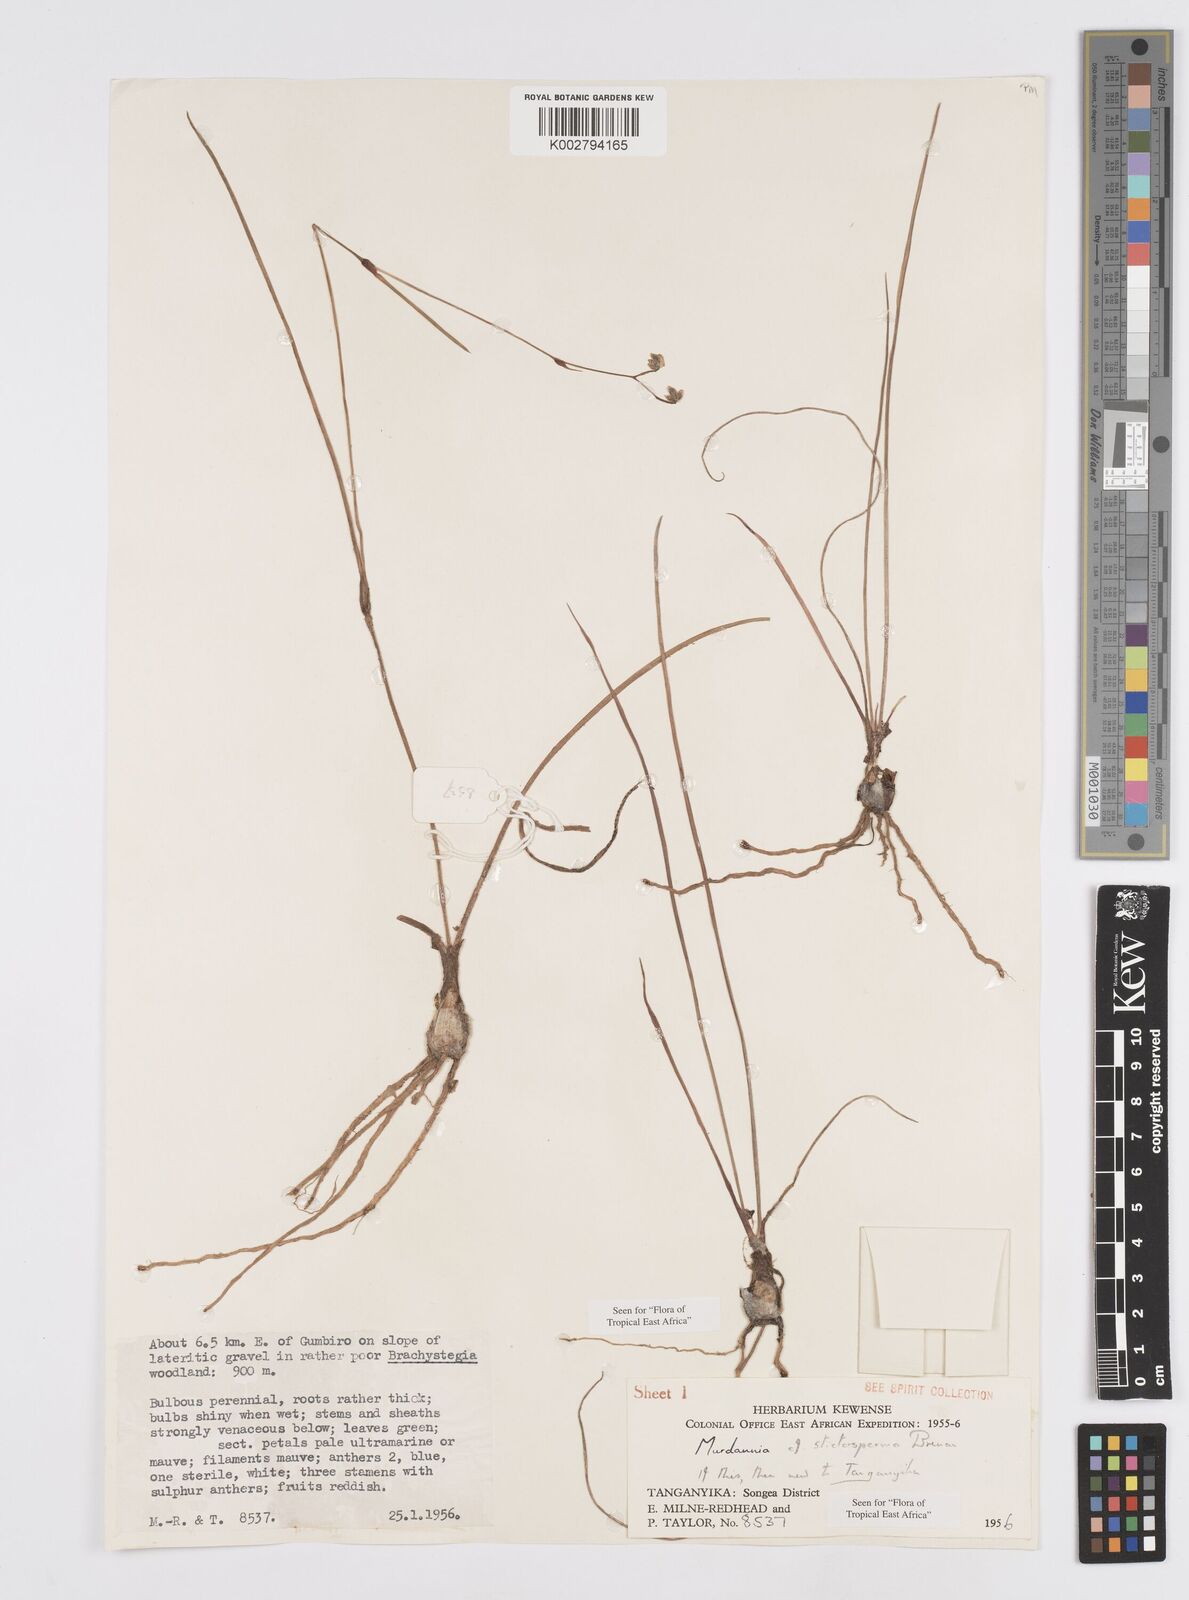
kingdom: Plantae
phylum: Tracheophyta
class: Liliopsida
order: Commelinales
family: Commelinaceae
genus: Murdannia
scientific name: Murdannia simplex
